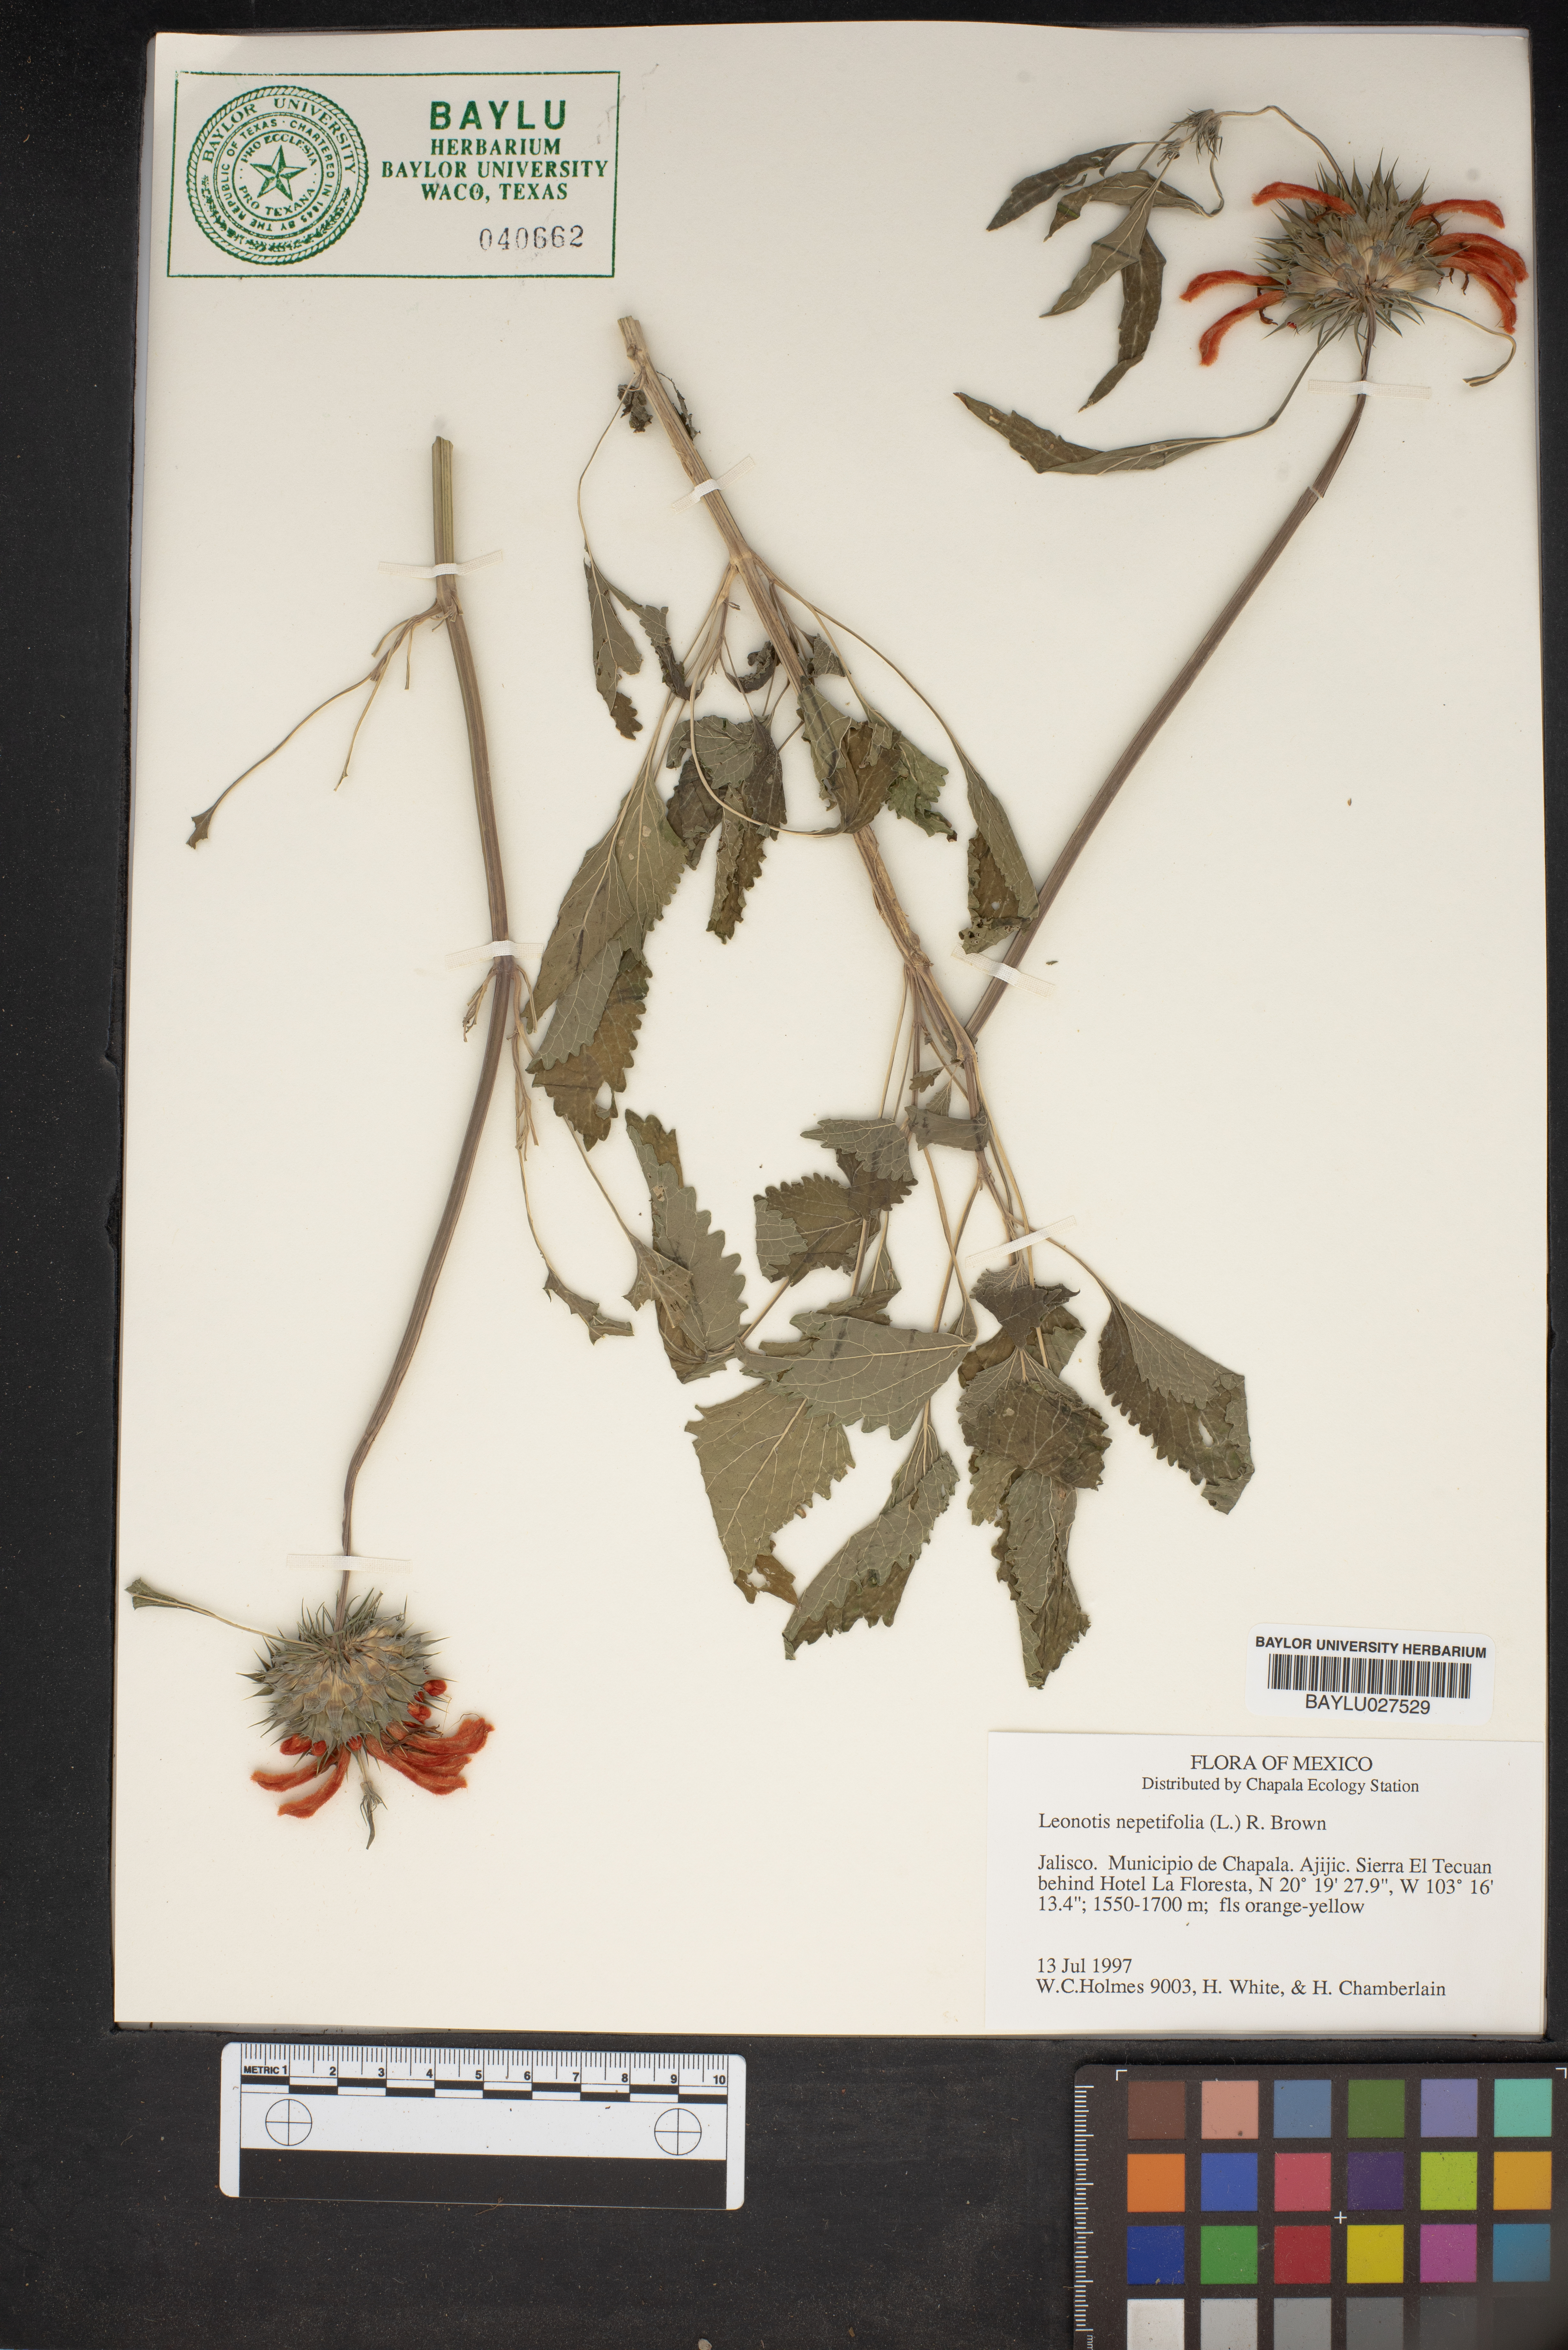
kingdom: Plantae
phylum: Tracheophyta
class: Magnoliopsida
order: Lamiales
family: Lamiaceae
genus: Leonotis
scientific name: Leonotis nepetifolia
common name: Christmas candlestick
